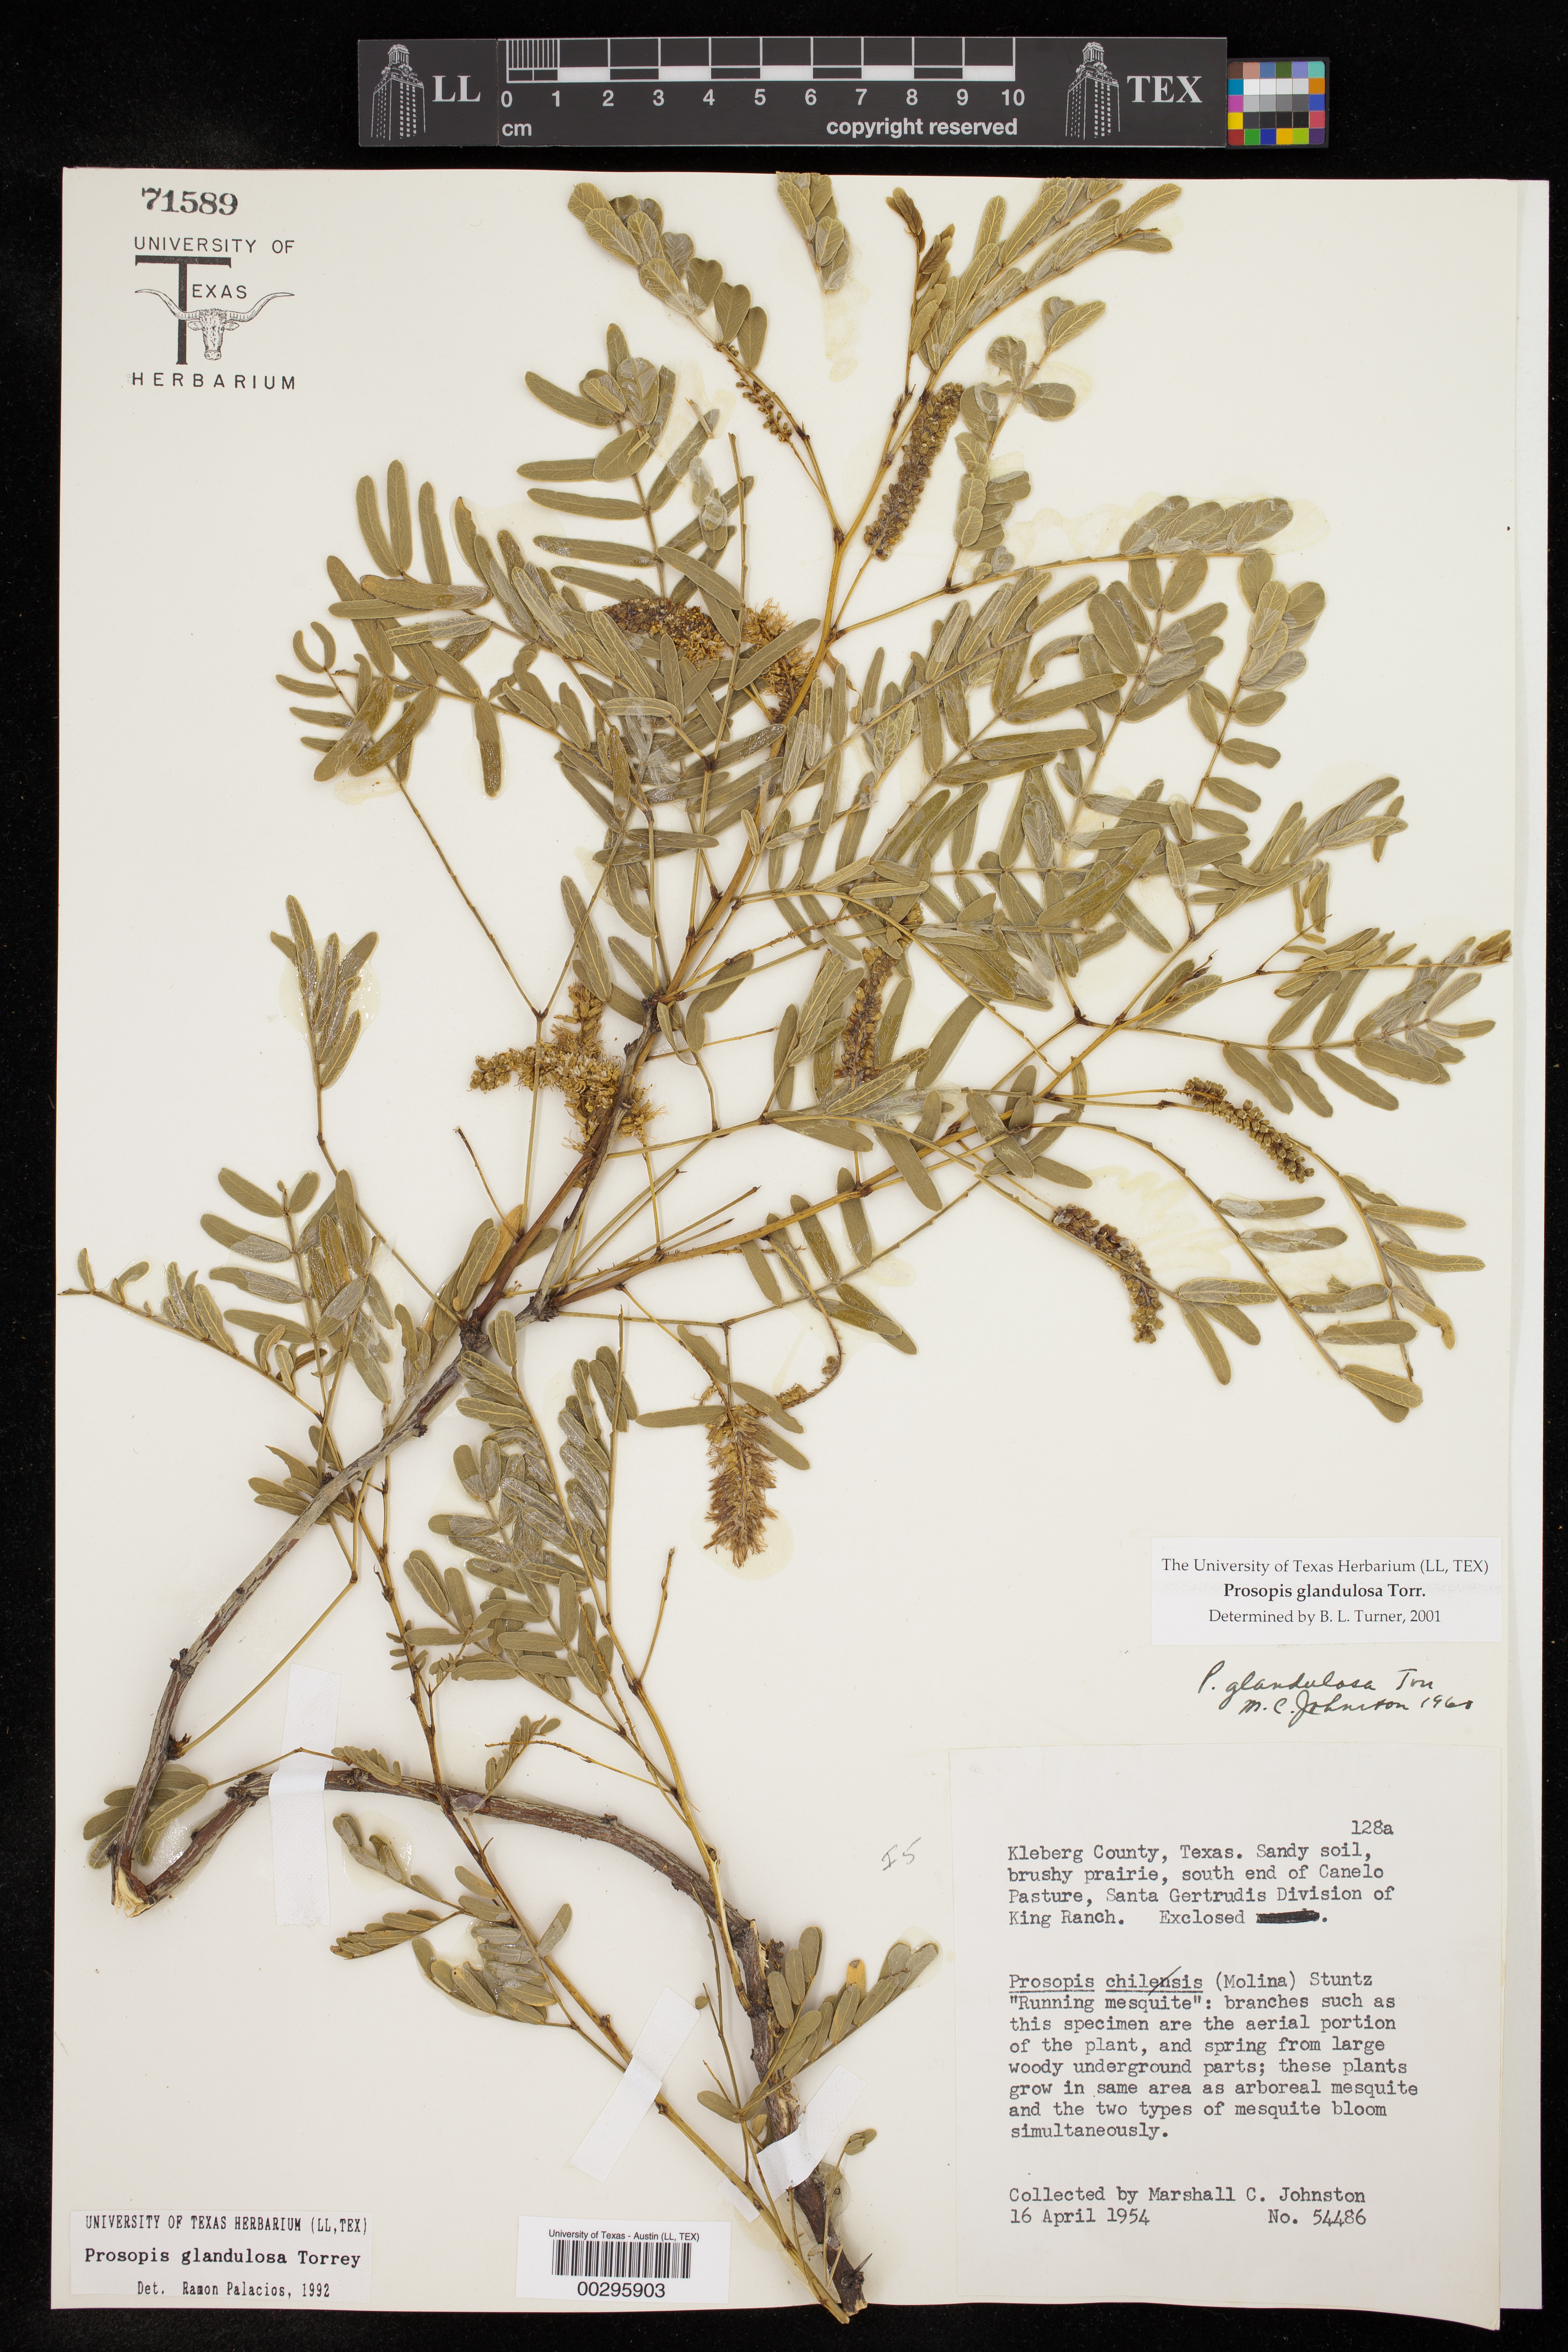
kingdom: Plantae
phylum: Tracheophyta
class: Magnoliopsida
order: Fabales
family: Fabaceae
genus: Prosopis
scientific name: Prosopis glandulosa
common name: Honey mesquite
